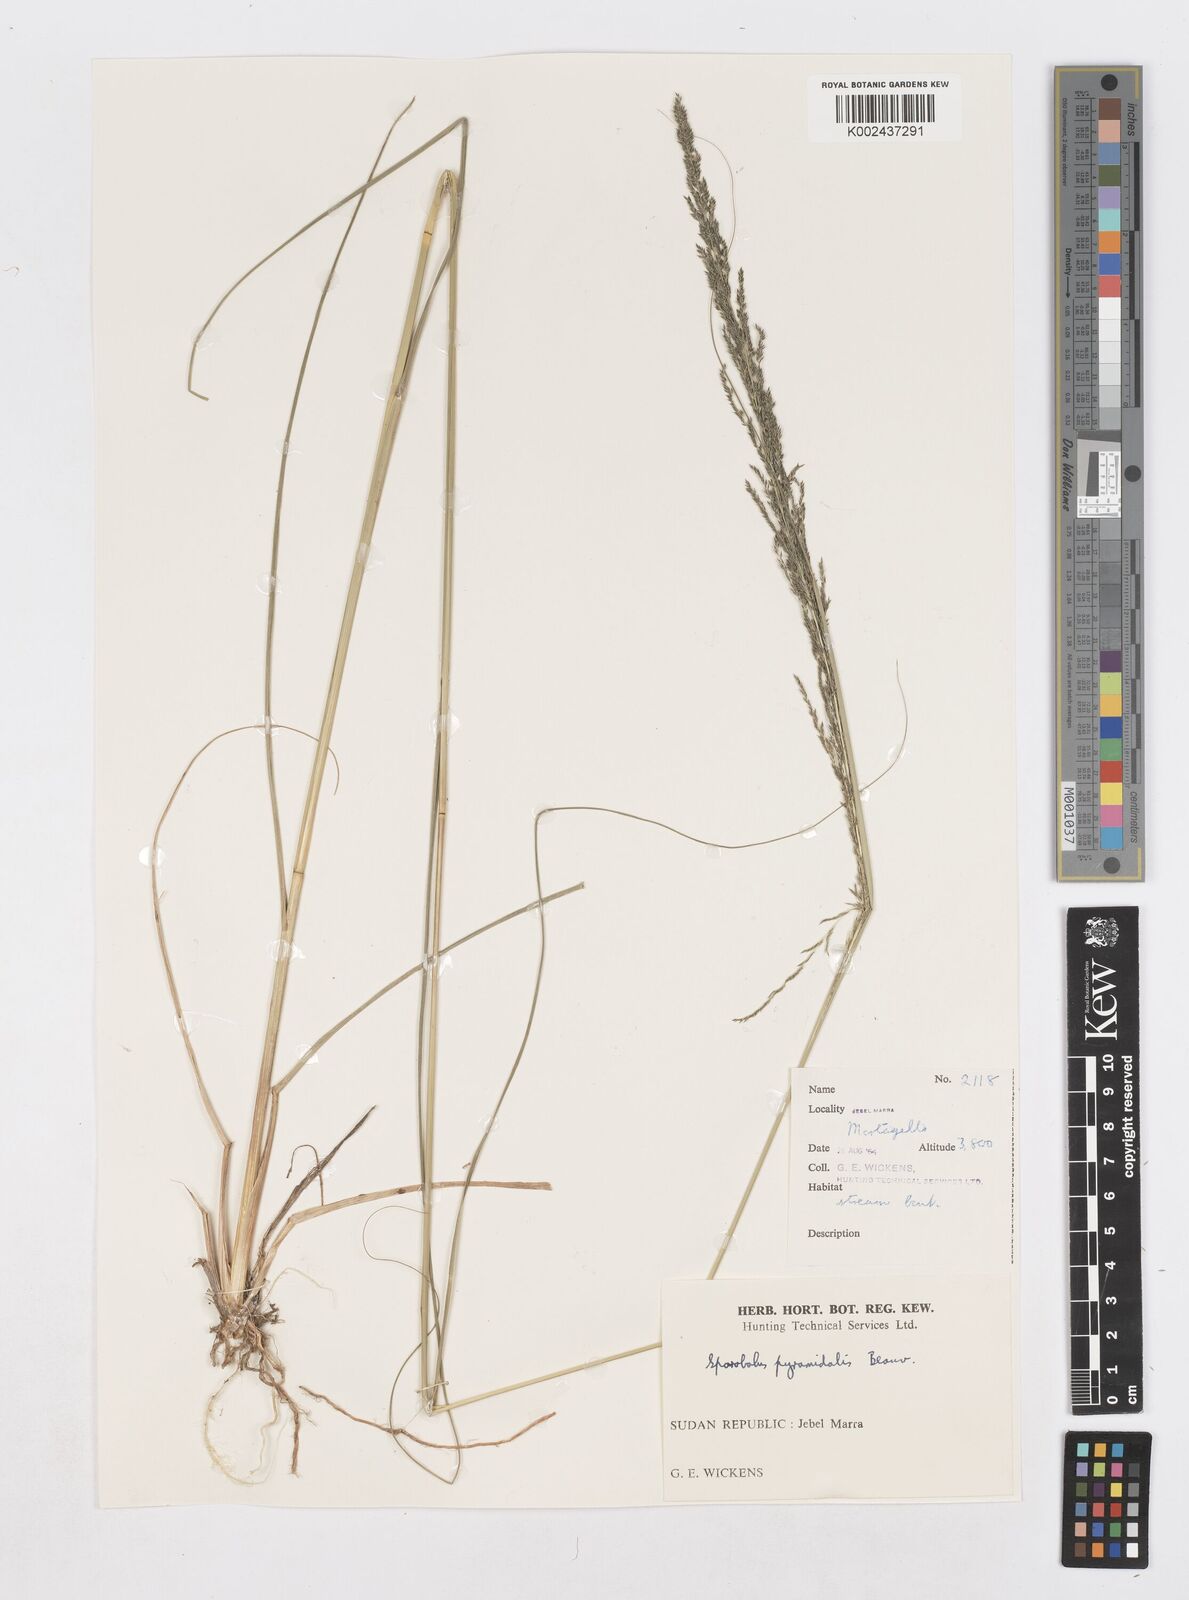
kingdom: Plantae
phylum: Tracheophyta
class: Liliopsida
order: Poales
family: Poaceae
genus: Sporobolus
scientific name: Sporobolus pyramidalis
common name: West indian dropseed
